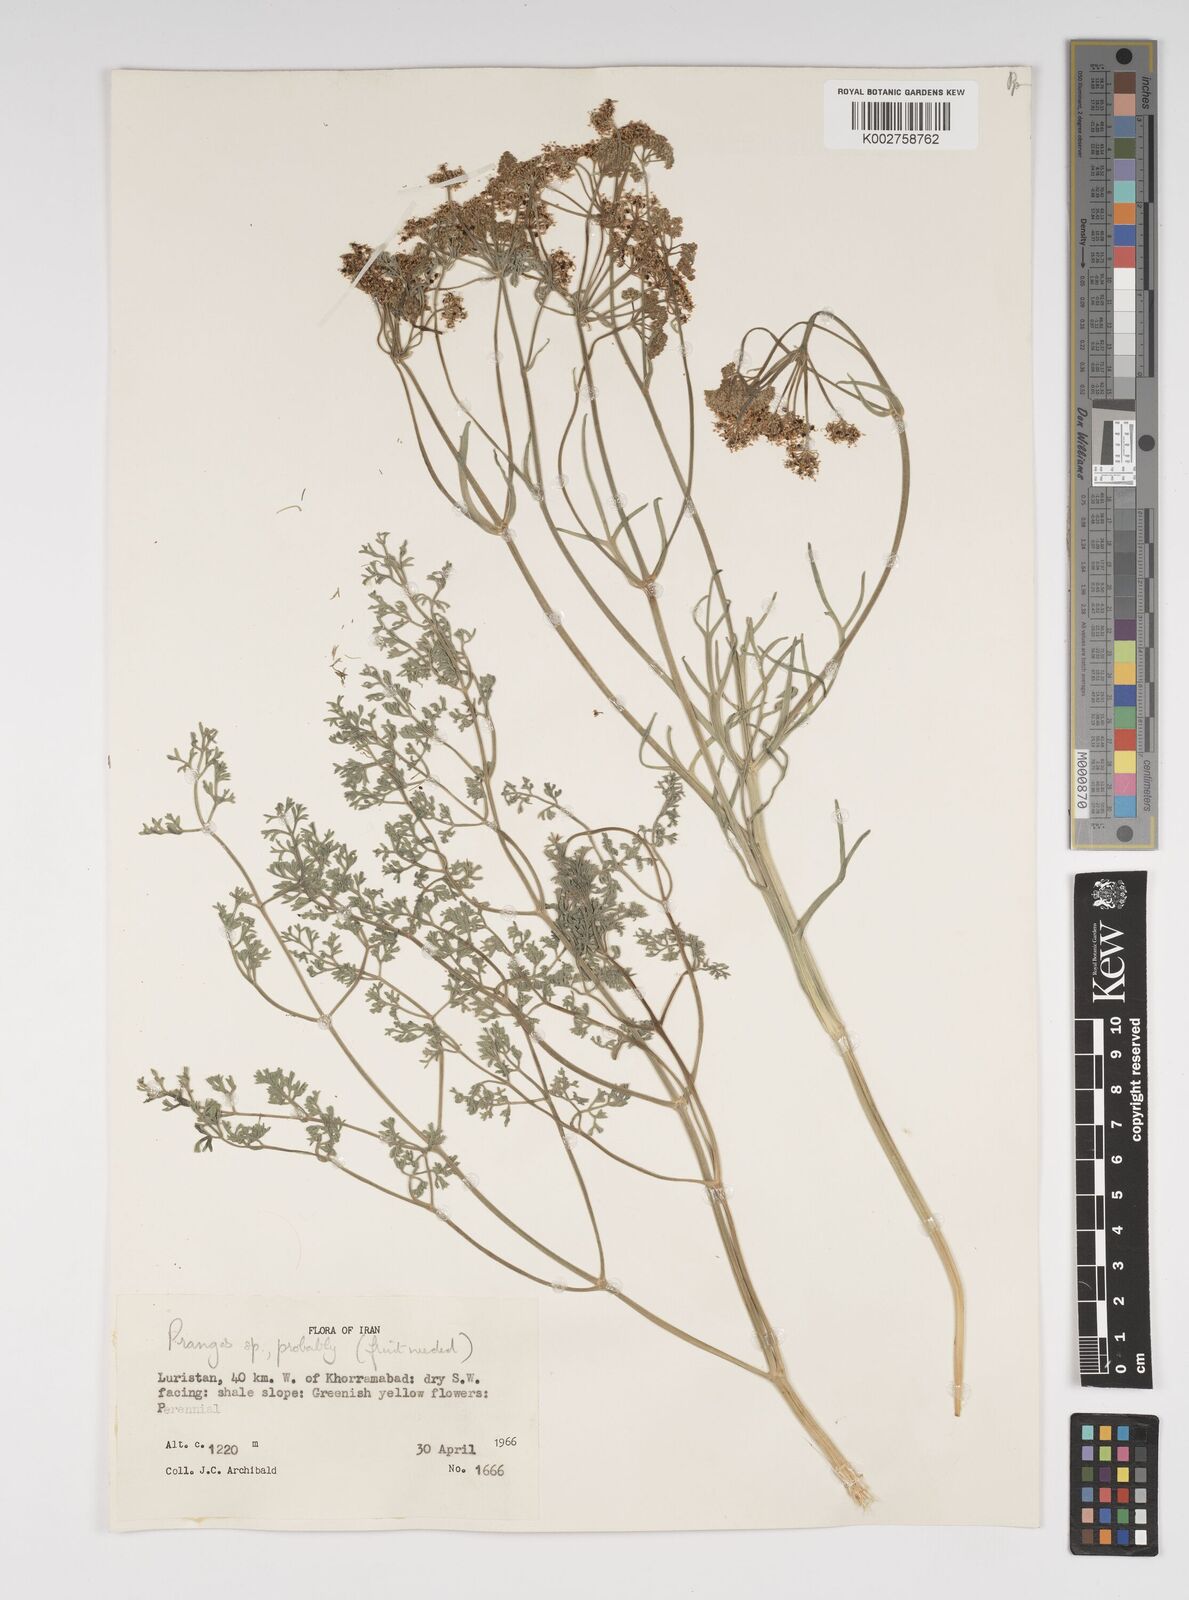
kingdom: Plantae
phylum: Tracheophyta
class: Magnoliopsida
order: Apiales
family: Apiaceae
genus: Cachrys
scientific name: Cachrys
